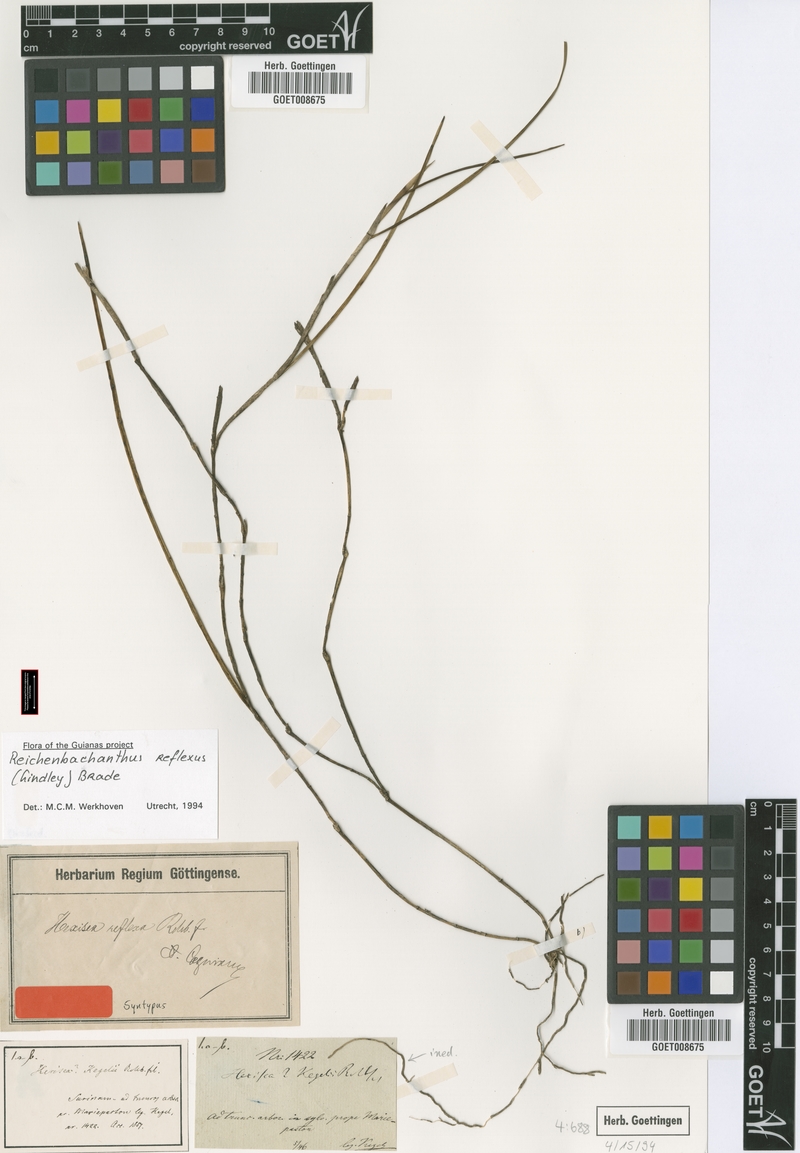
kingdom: Plantae
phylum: Tracheophyta
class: Liliopsida
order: Asparagales
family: Orchidaceae
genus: Scaphyglottis
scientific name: Scaphyglottis reflexa
